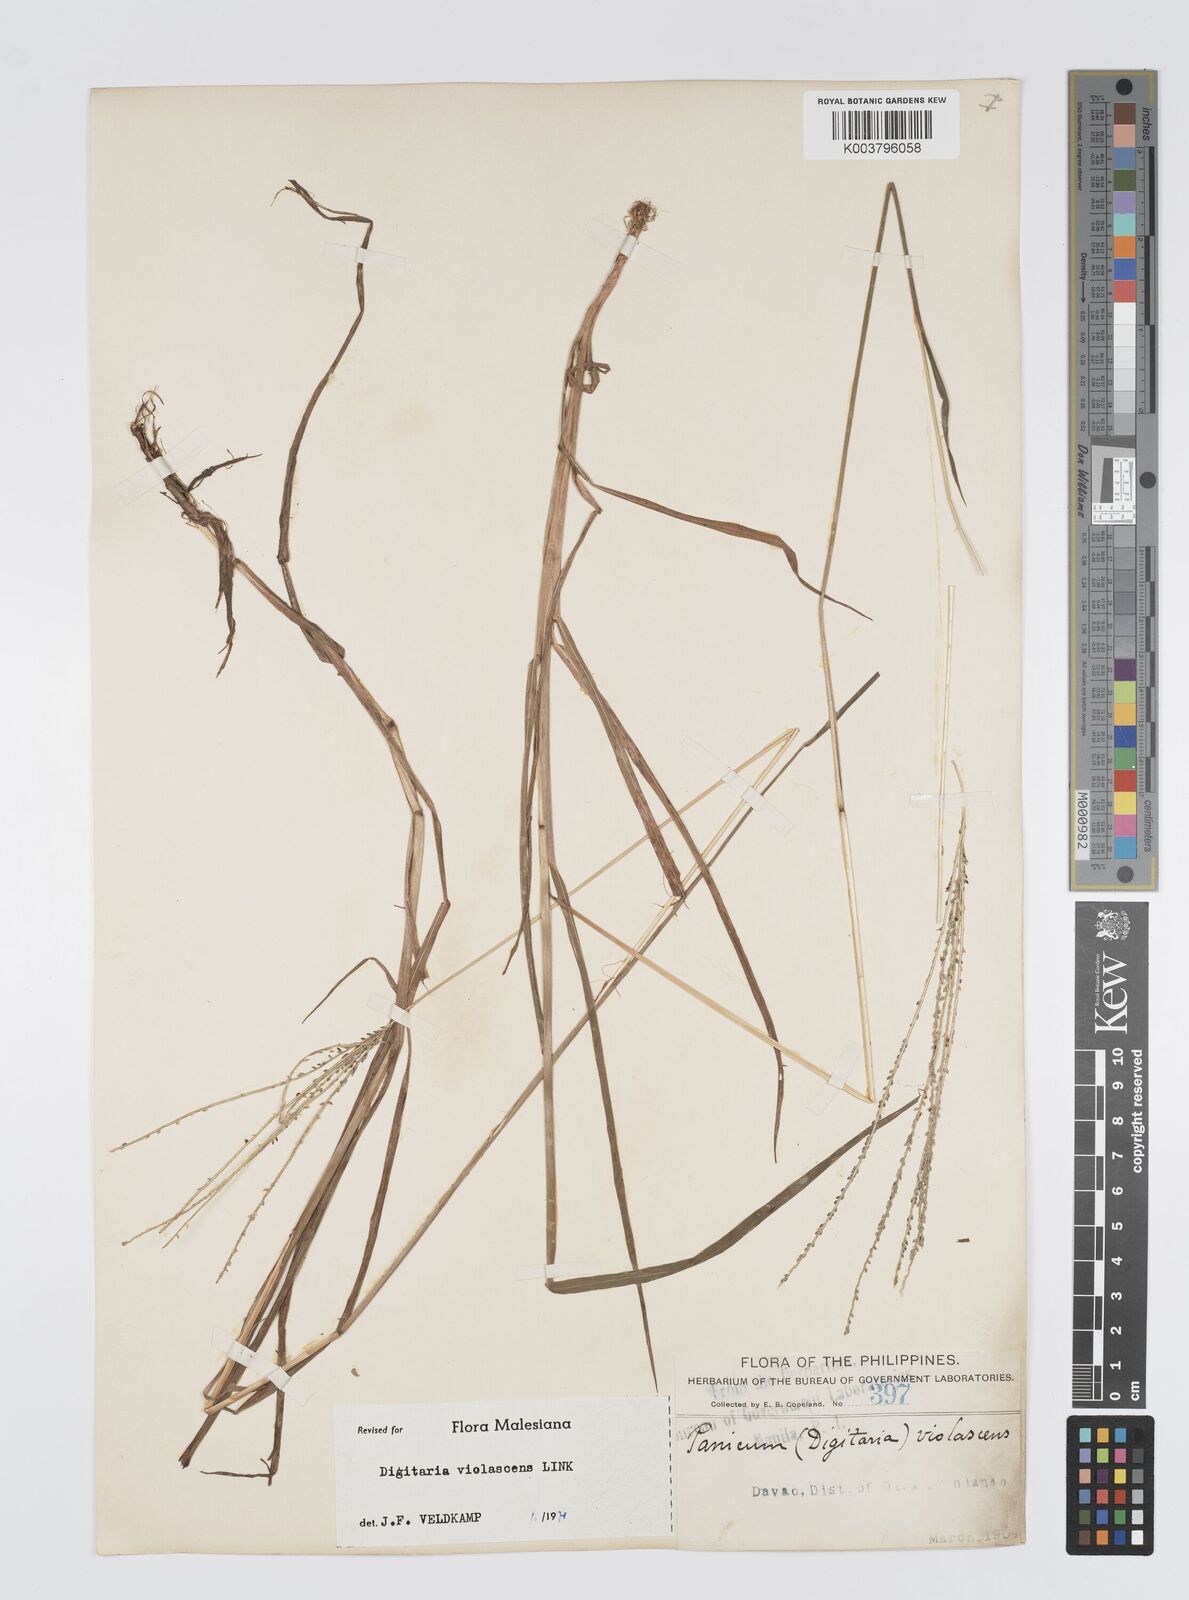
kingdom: Plantae
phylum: Tracheophyta
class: Liliopsida
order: Poales
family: Poaceae
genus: Digitaria
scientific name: Digitaria violascens
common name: Violet crabgrass
